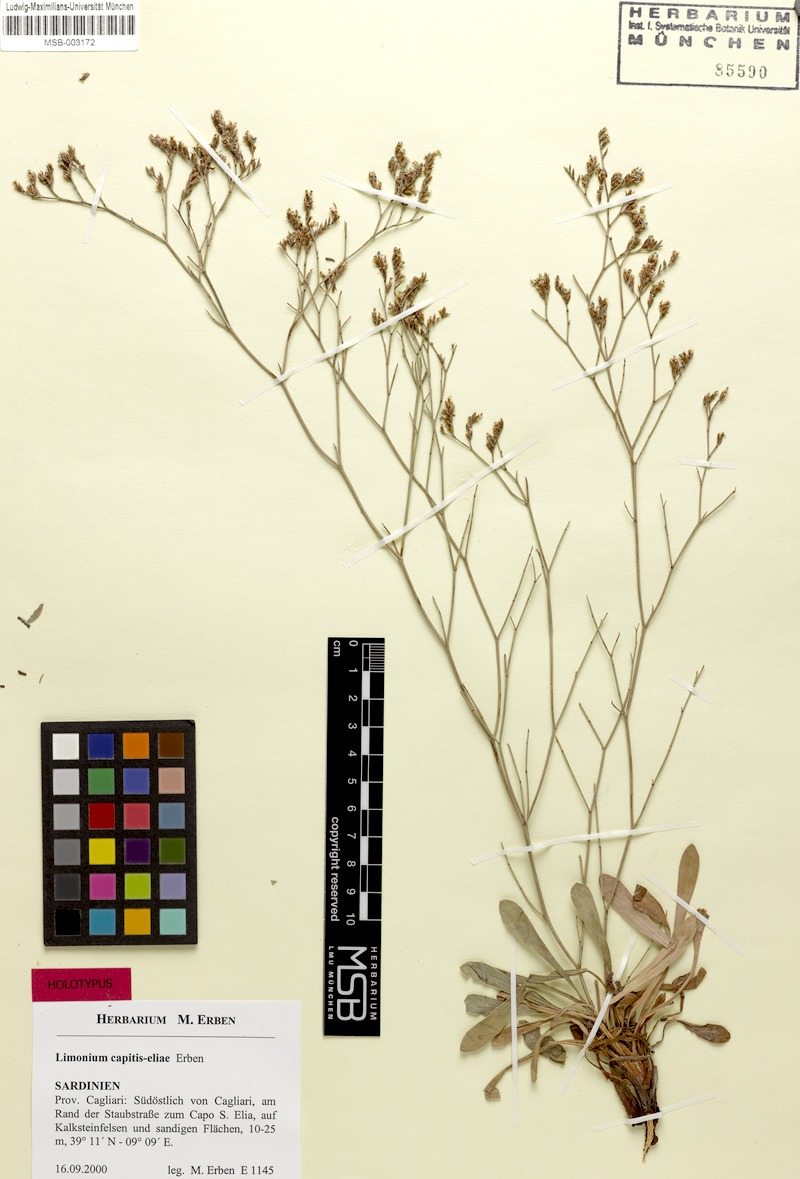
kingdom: Plantae
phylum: Tracheophyta
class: Magnoliopsida
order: Caryophyllales
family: Plumbaginaceae
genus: Limonium
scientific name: Limonium capitis-eliae
